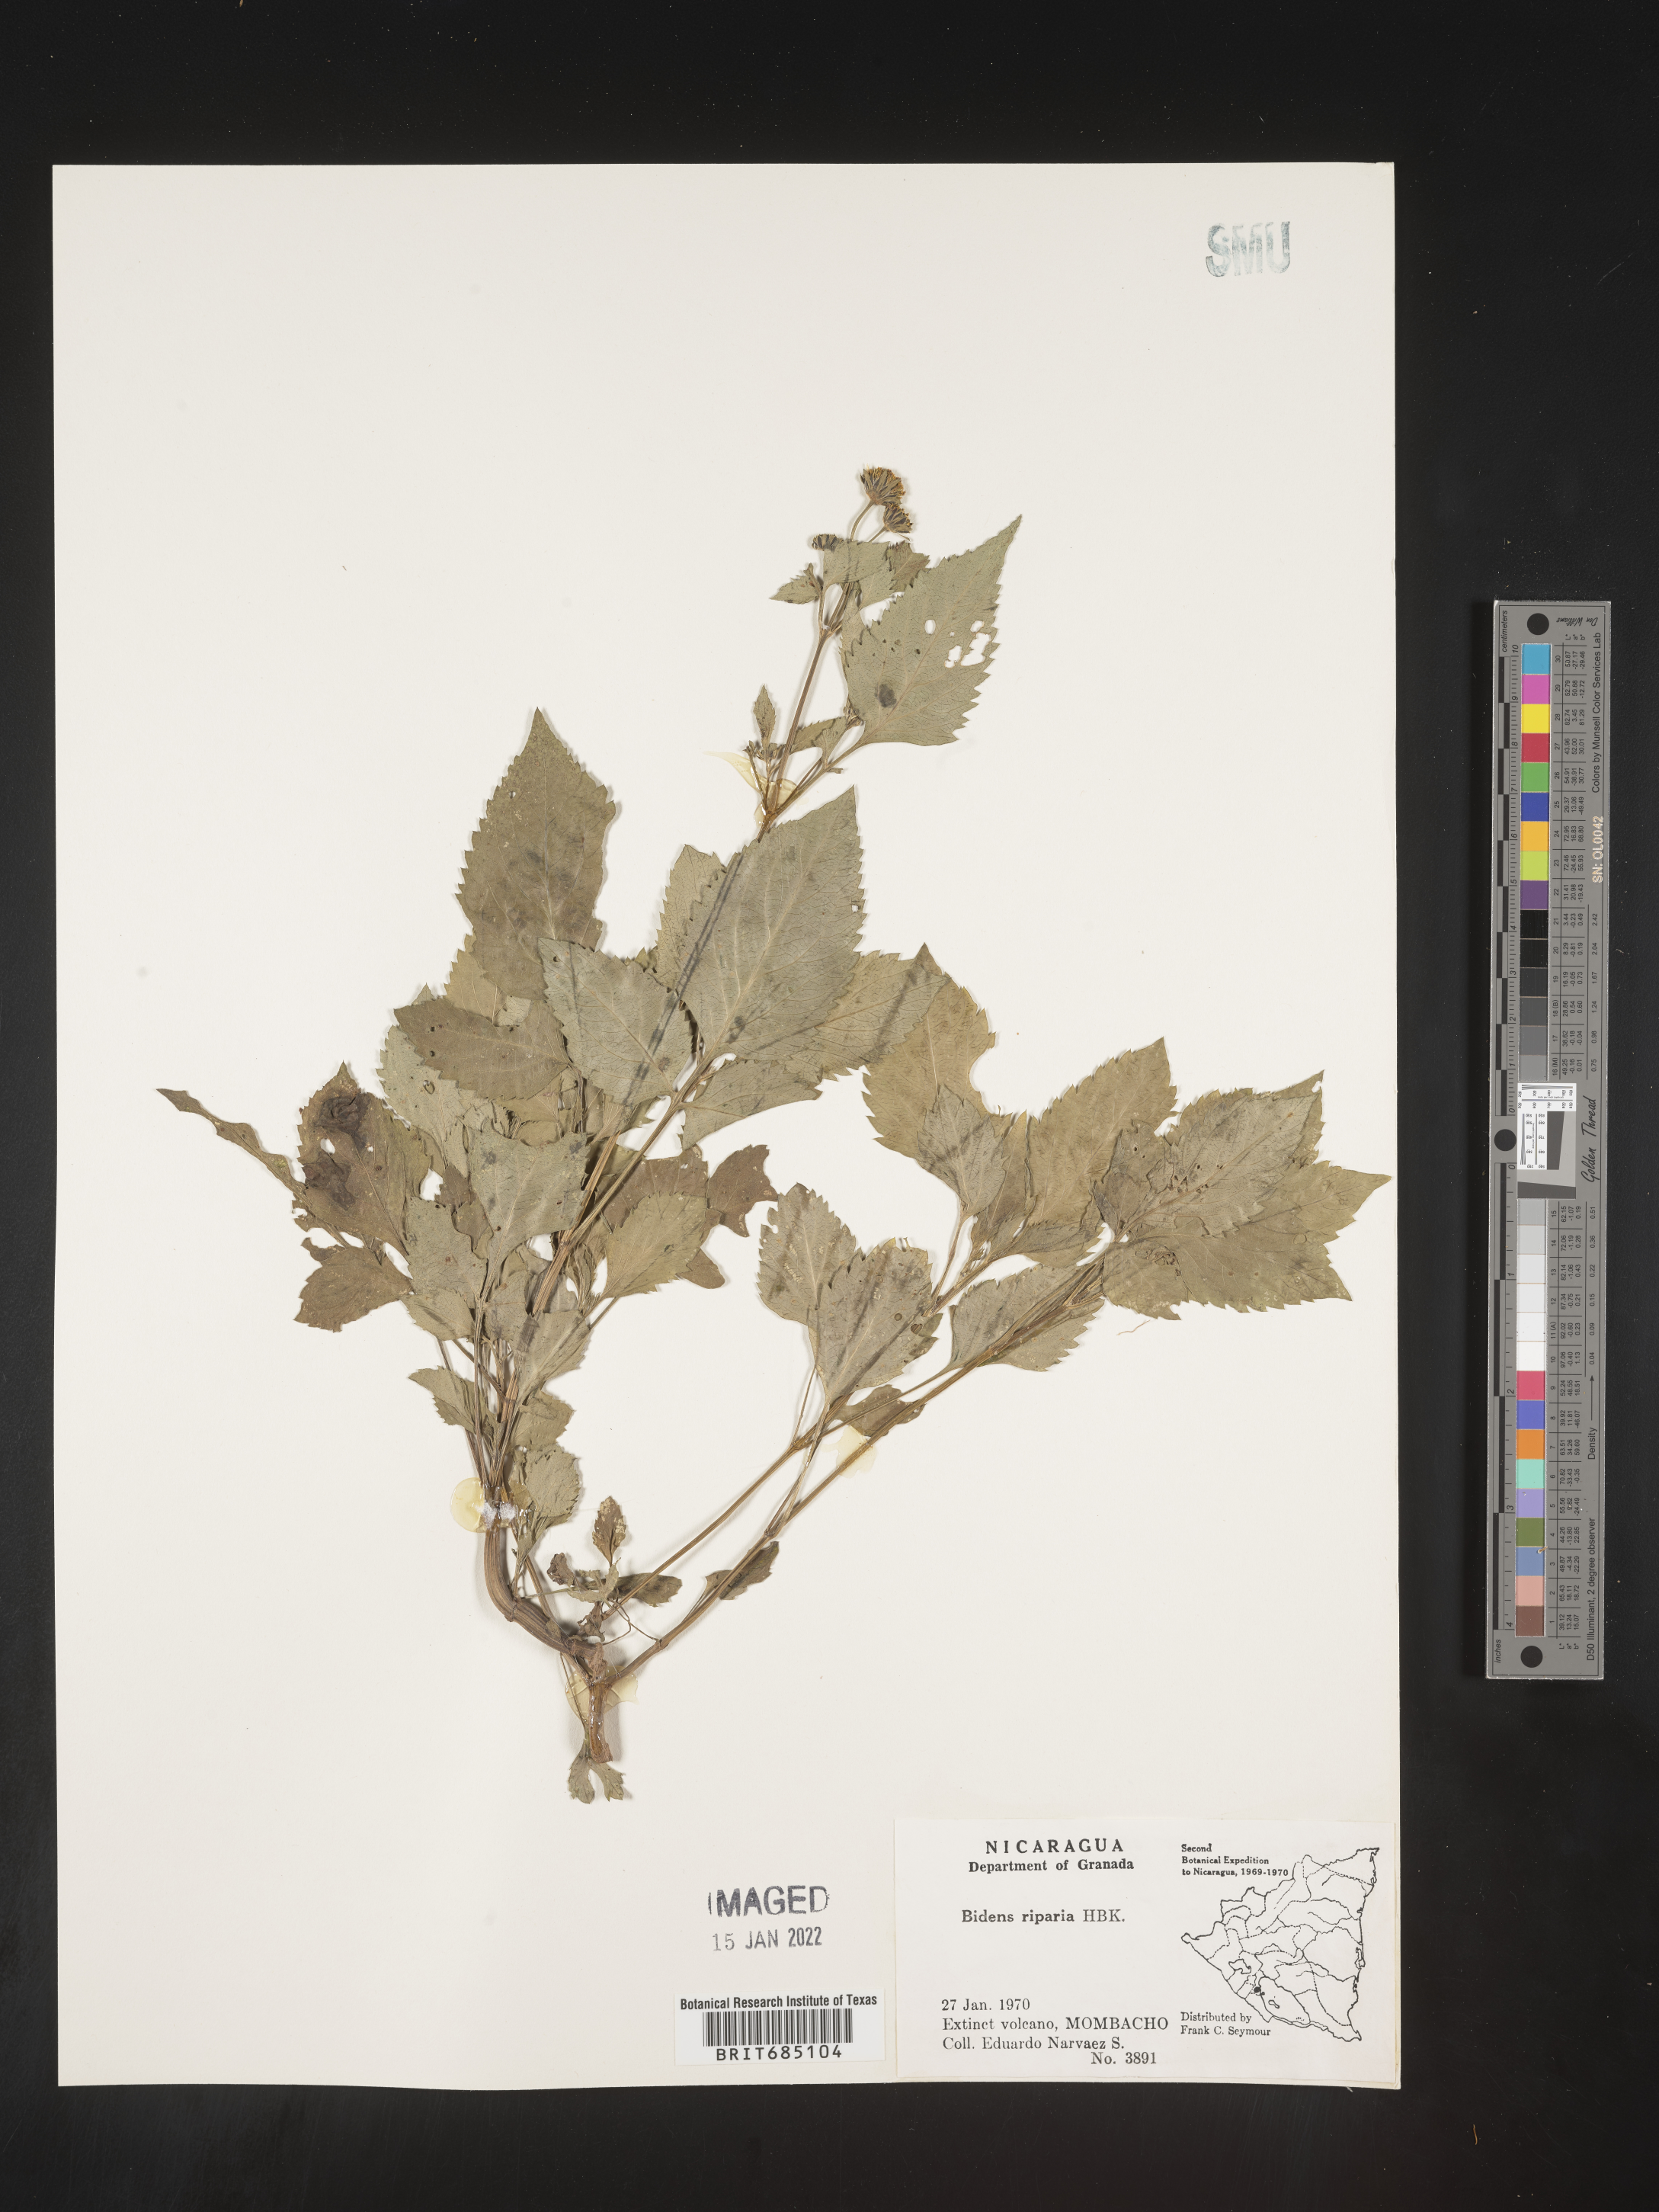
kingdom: Plantae
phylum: Tracheophyta
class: Magnoliopsida
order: Asterales
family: Asteraceae
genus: Bidens
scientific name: Bidens
